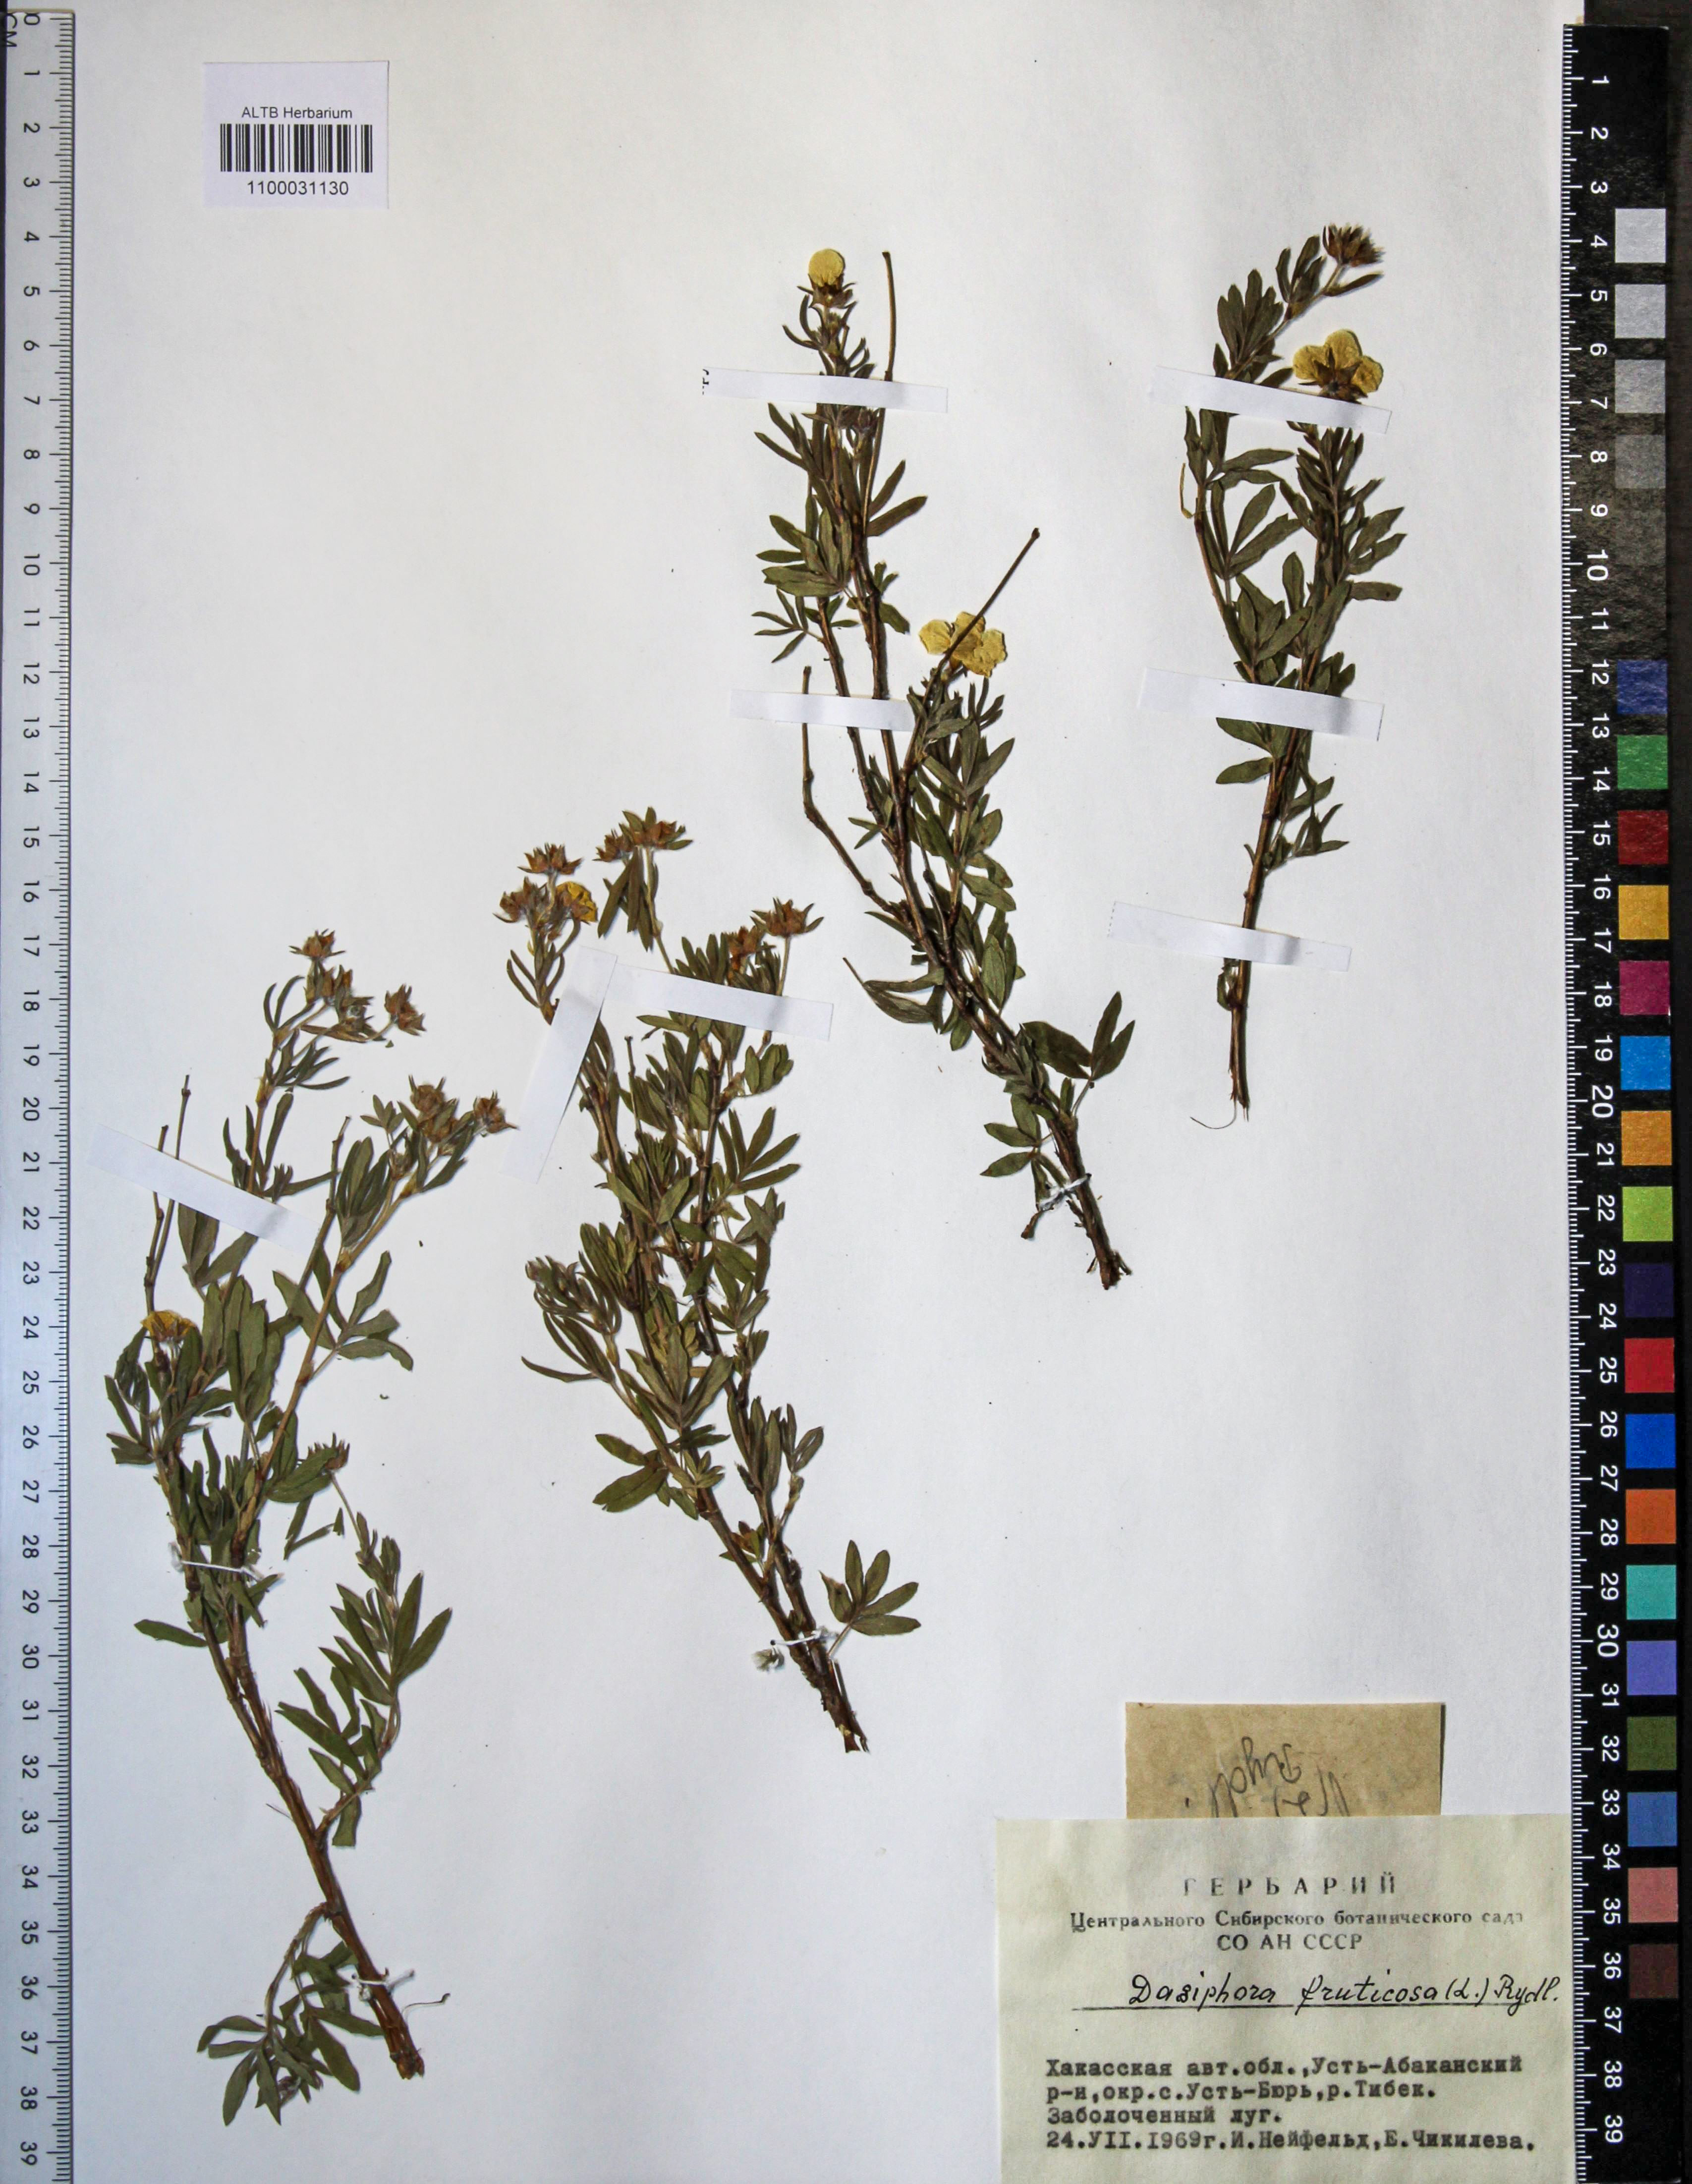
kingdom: Plantae
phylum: Tracheophyta
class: Magnoliopsida
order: Rosales
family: Rosaceae
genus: Dasiphora
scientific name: Dasiphora fruticosa
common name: Shrubby cinquefoil
